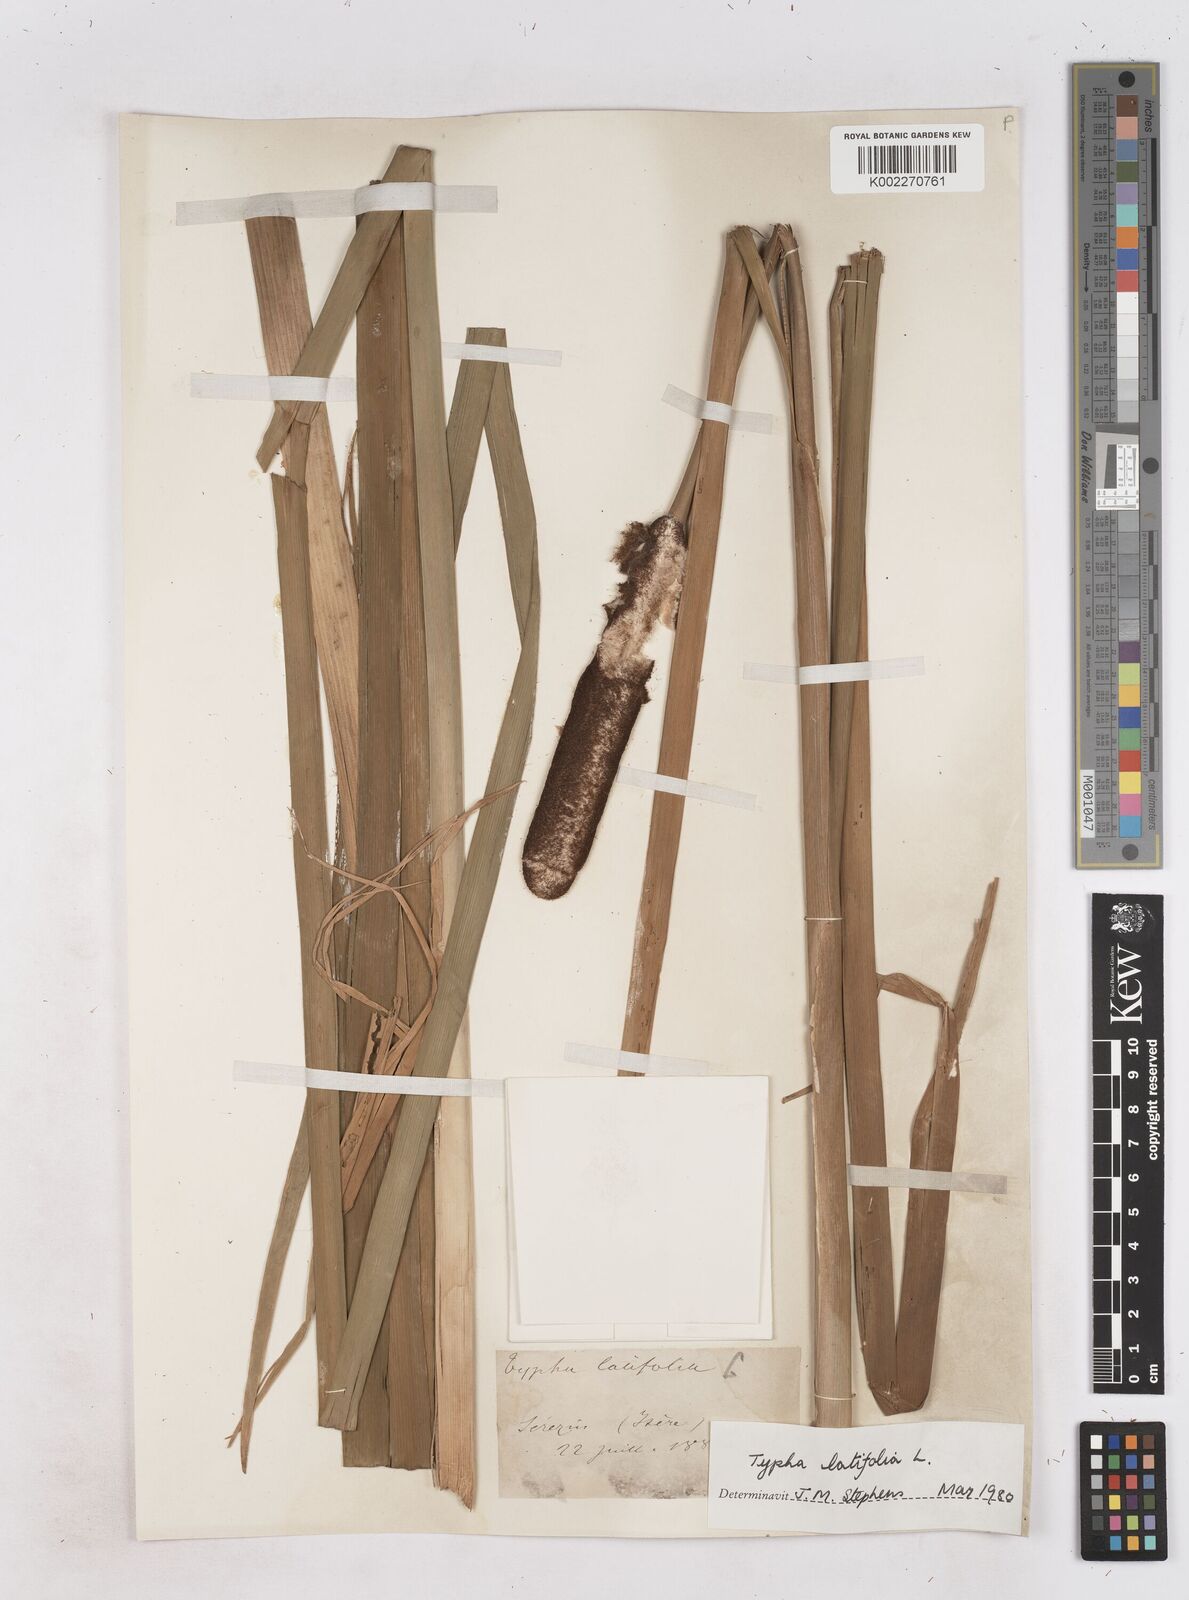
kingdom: Plantae
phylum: Tracheophyta
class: Liliopsida
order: Poales
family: Typhaceae
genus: Typha
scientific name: Typha latifolia
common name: Broadleaf cattail
